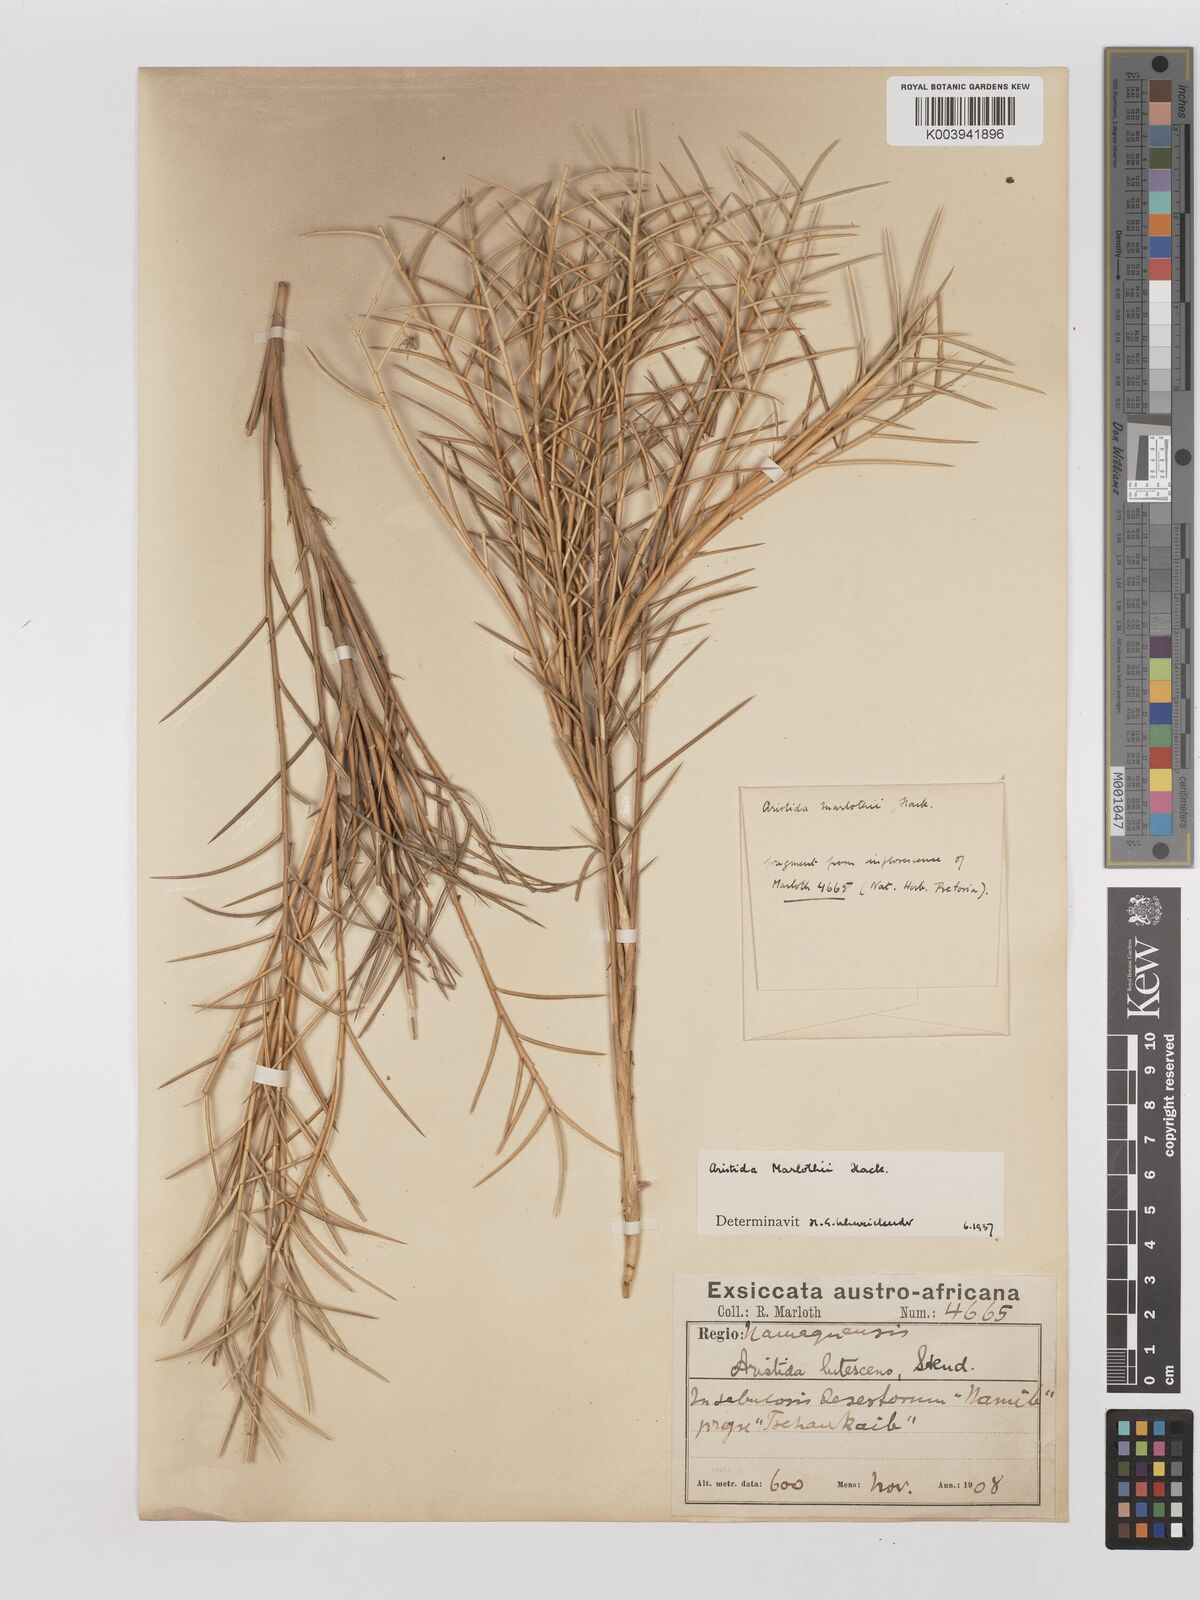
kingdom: Plantae
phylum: Tracheophyta
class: Liliopsida
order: Poales
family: Poaceae
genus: Stipagrostis
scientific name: Stipagrostis lutescens
